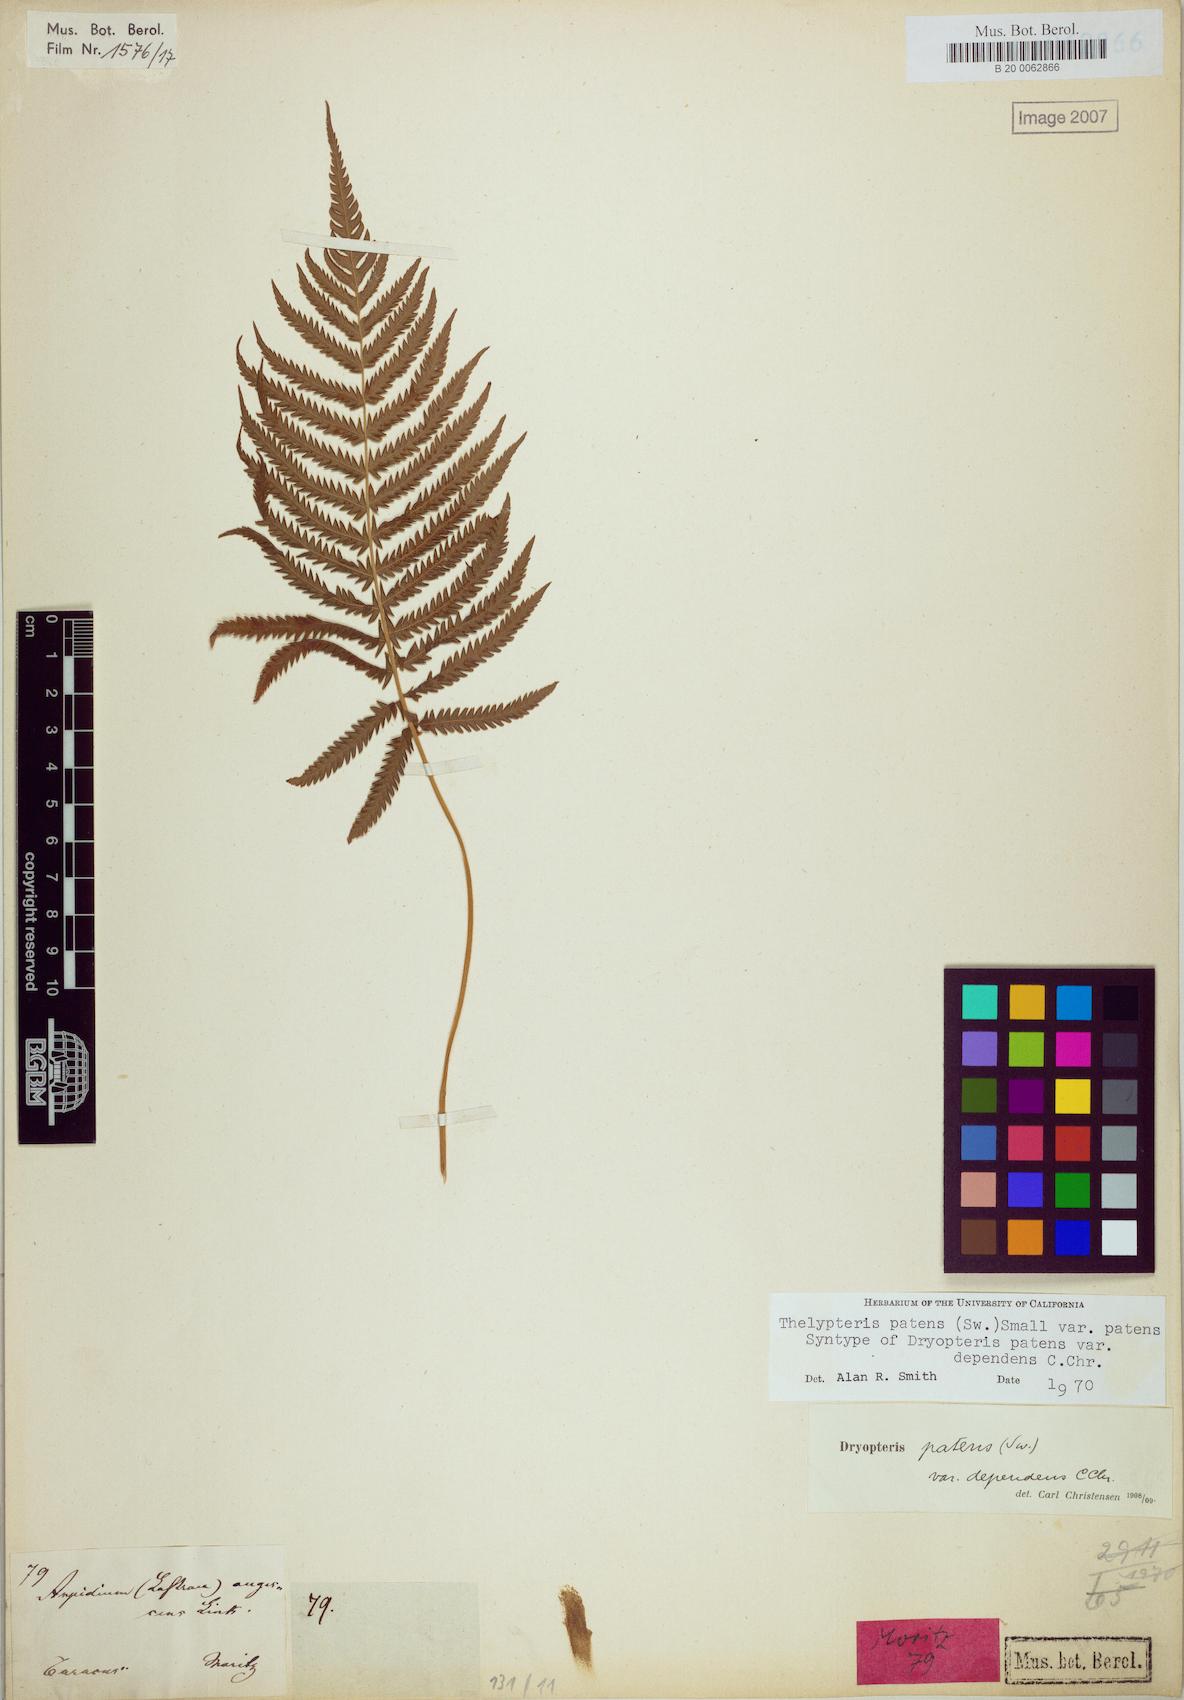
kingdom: Plantae
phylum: Tracheophyta
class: Polypodiopsida
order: Polypodiales
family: Thelypteridaceae
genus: Pelazoneuron
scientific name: Pelazoneuron patens
